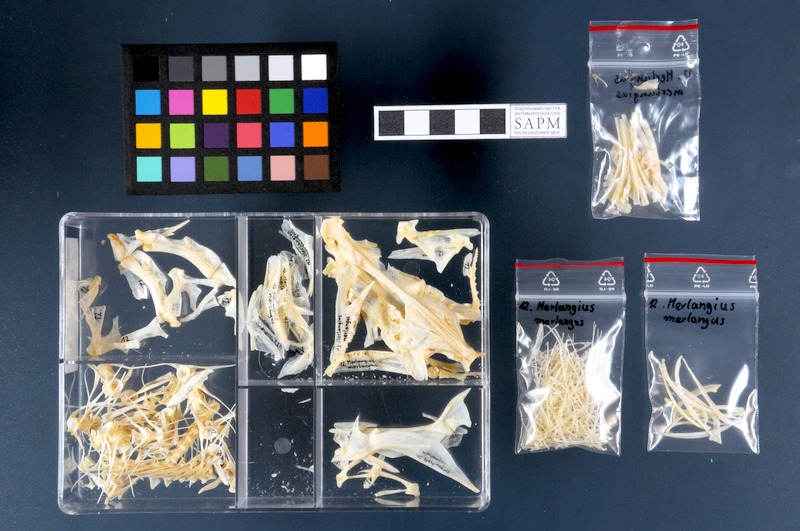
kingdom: Animalia
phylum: Chordata
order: Gadiformes
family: Gadidae
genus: Merlangius
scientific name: Merlangius merlangus
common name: Whiting
